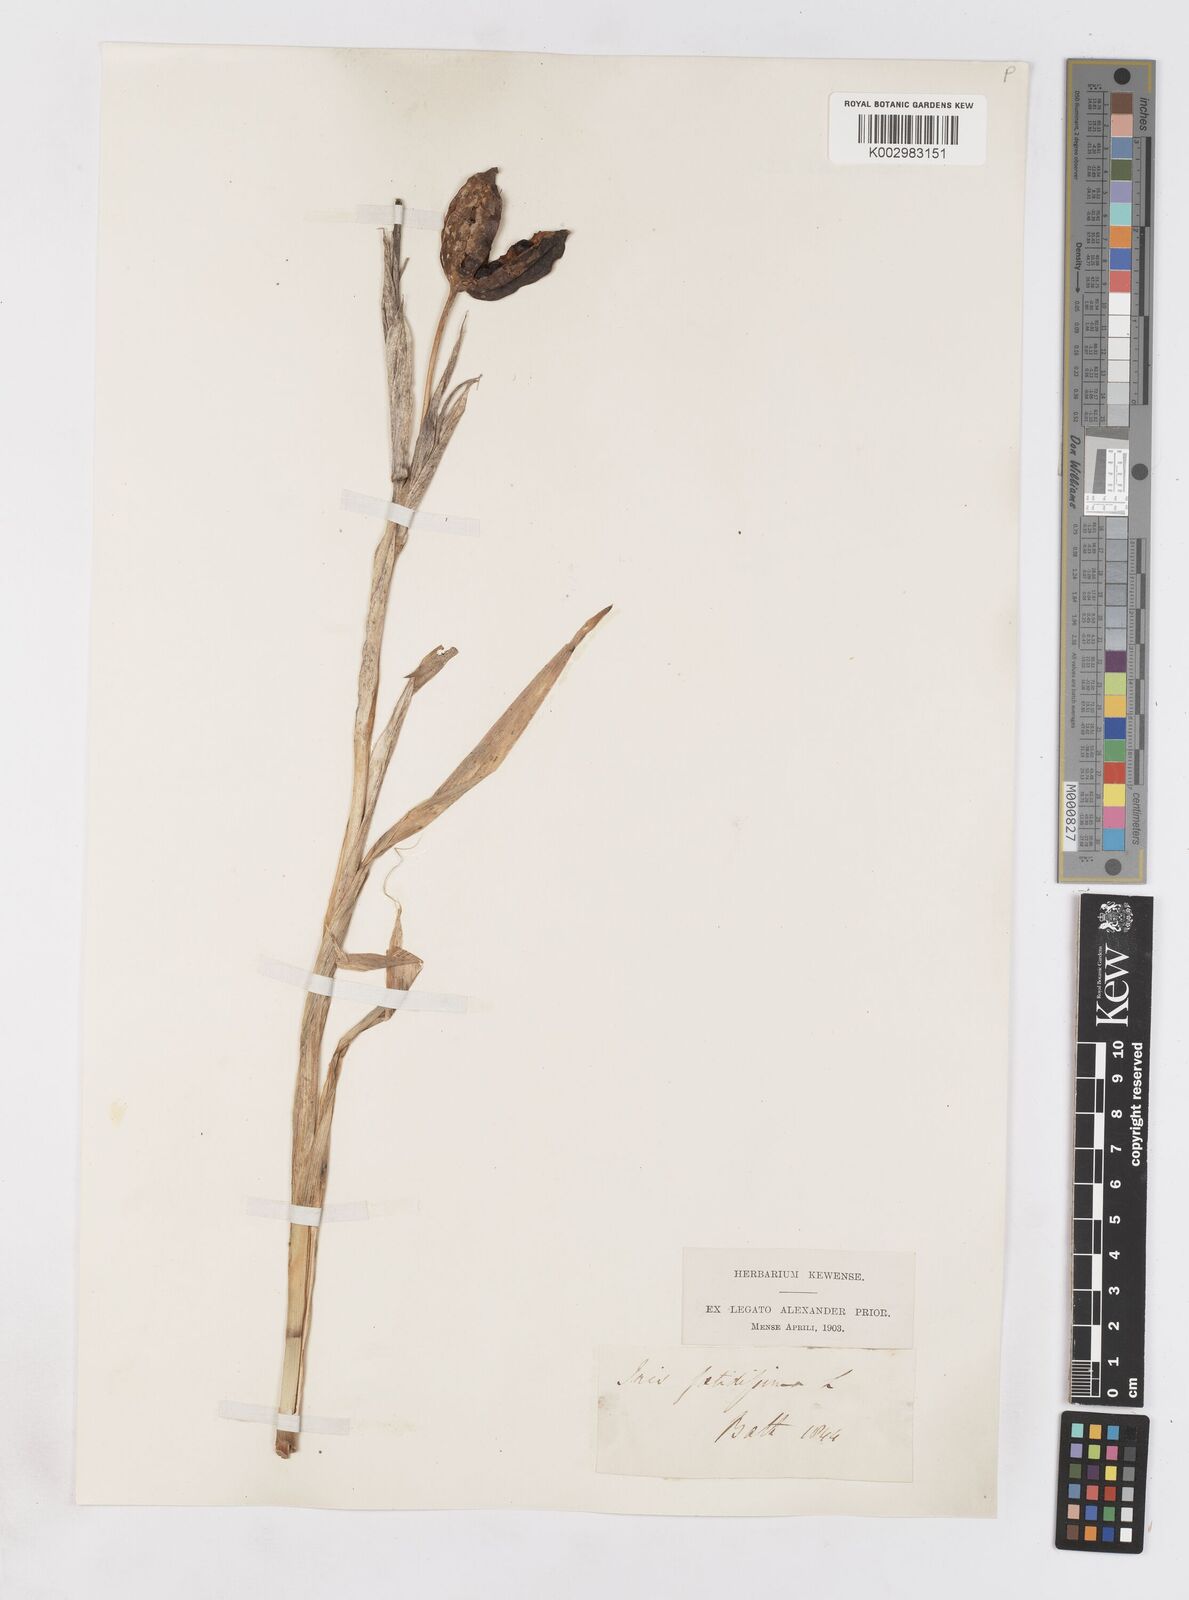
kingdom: Plantae
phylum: Tracheophyta
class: Liliopsida
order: Asparagales
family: Iridaceae
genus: Iris
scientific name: Iris foetidissima
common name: Stinking iris
